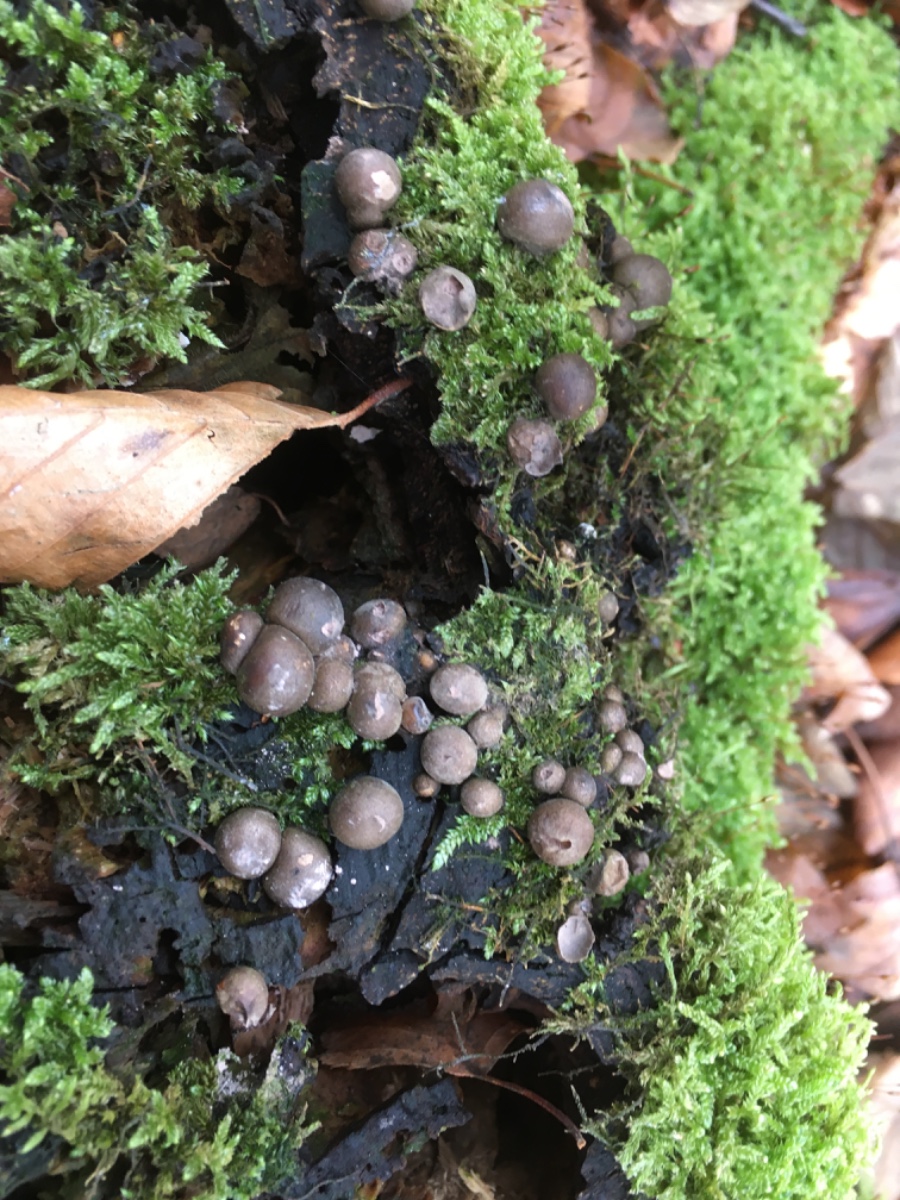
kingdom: Protozoa
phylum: Mycetozoa
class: Myxomycetes
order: Cribrariales
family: Tubiferaceae
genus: Lycogala
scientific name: Lycogala epidendrum
